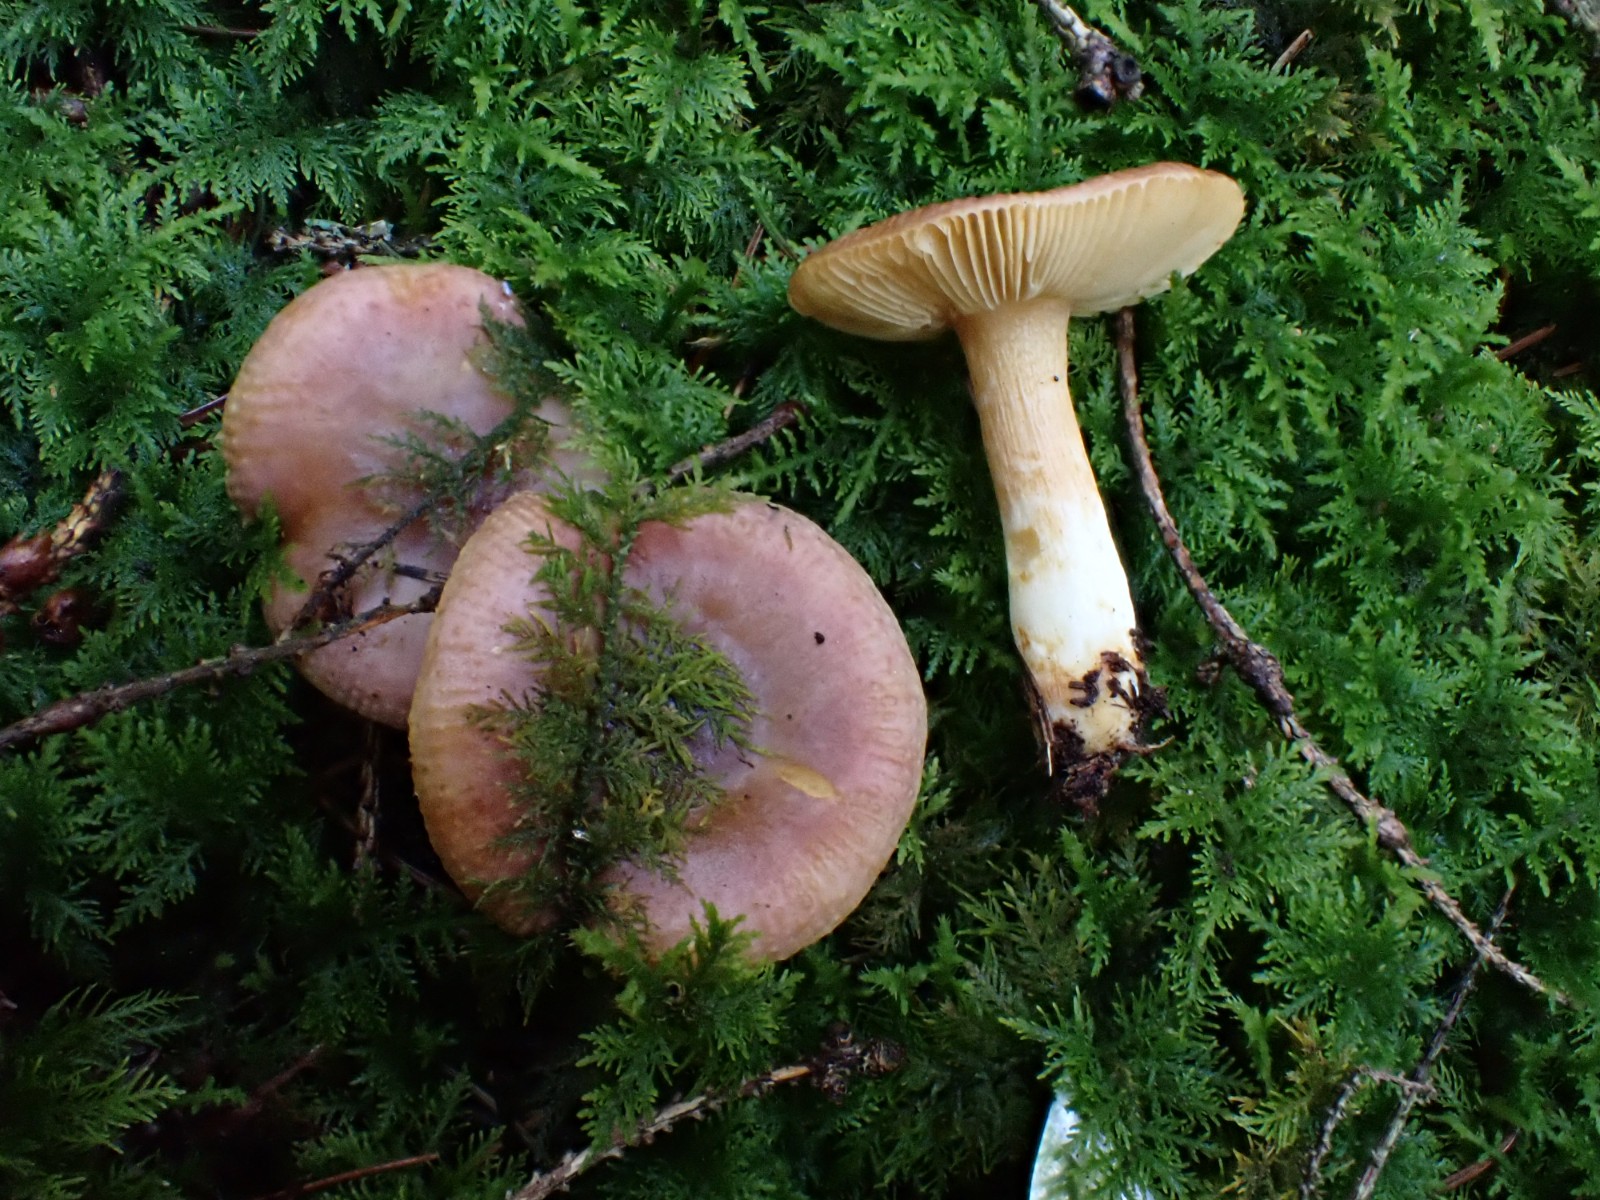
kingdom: Fungi
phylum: Basidiomycota
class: Agaricomycetes
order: Russulales
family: Russulaceae
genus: Russula
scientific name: Russula puellaris
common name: gulstokket skørhat
